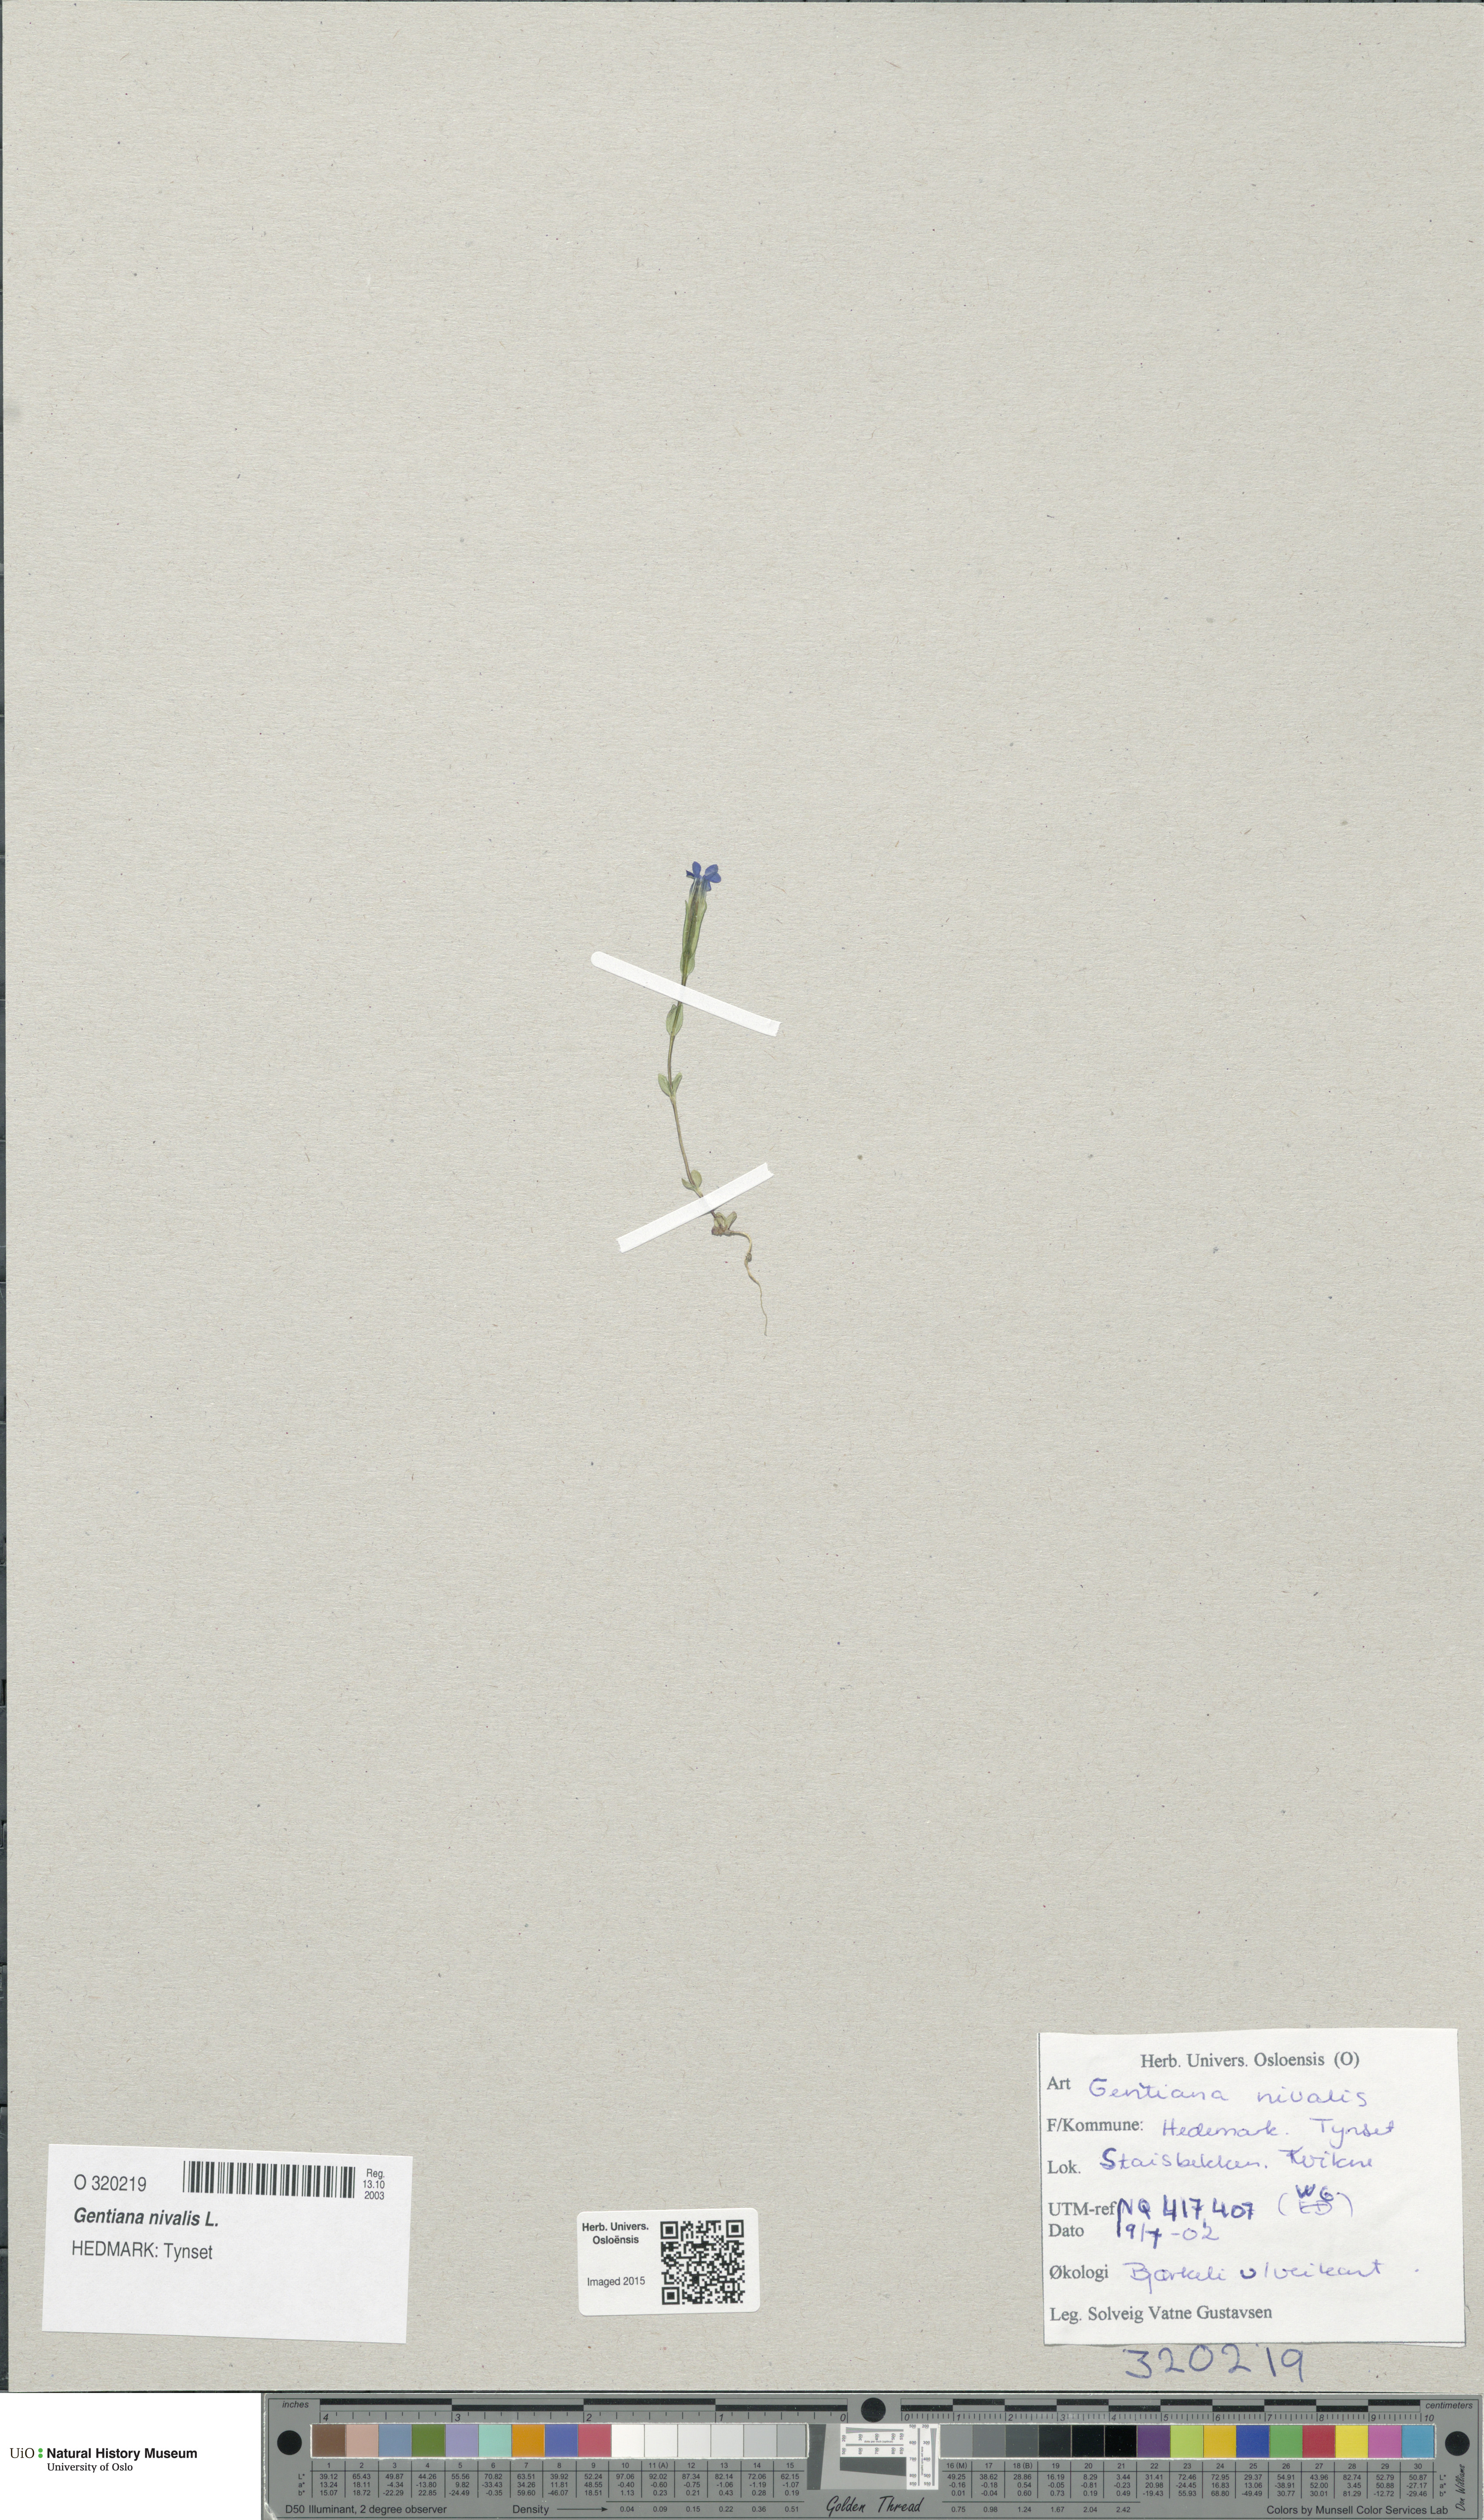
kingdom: Plantae
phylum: Tracheophyta
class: Magnoliopsida
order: Gentianales
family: Gentianaceae
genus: Gentiana
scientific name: Gentiana nivalis
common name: Alpine gentian
